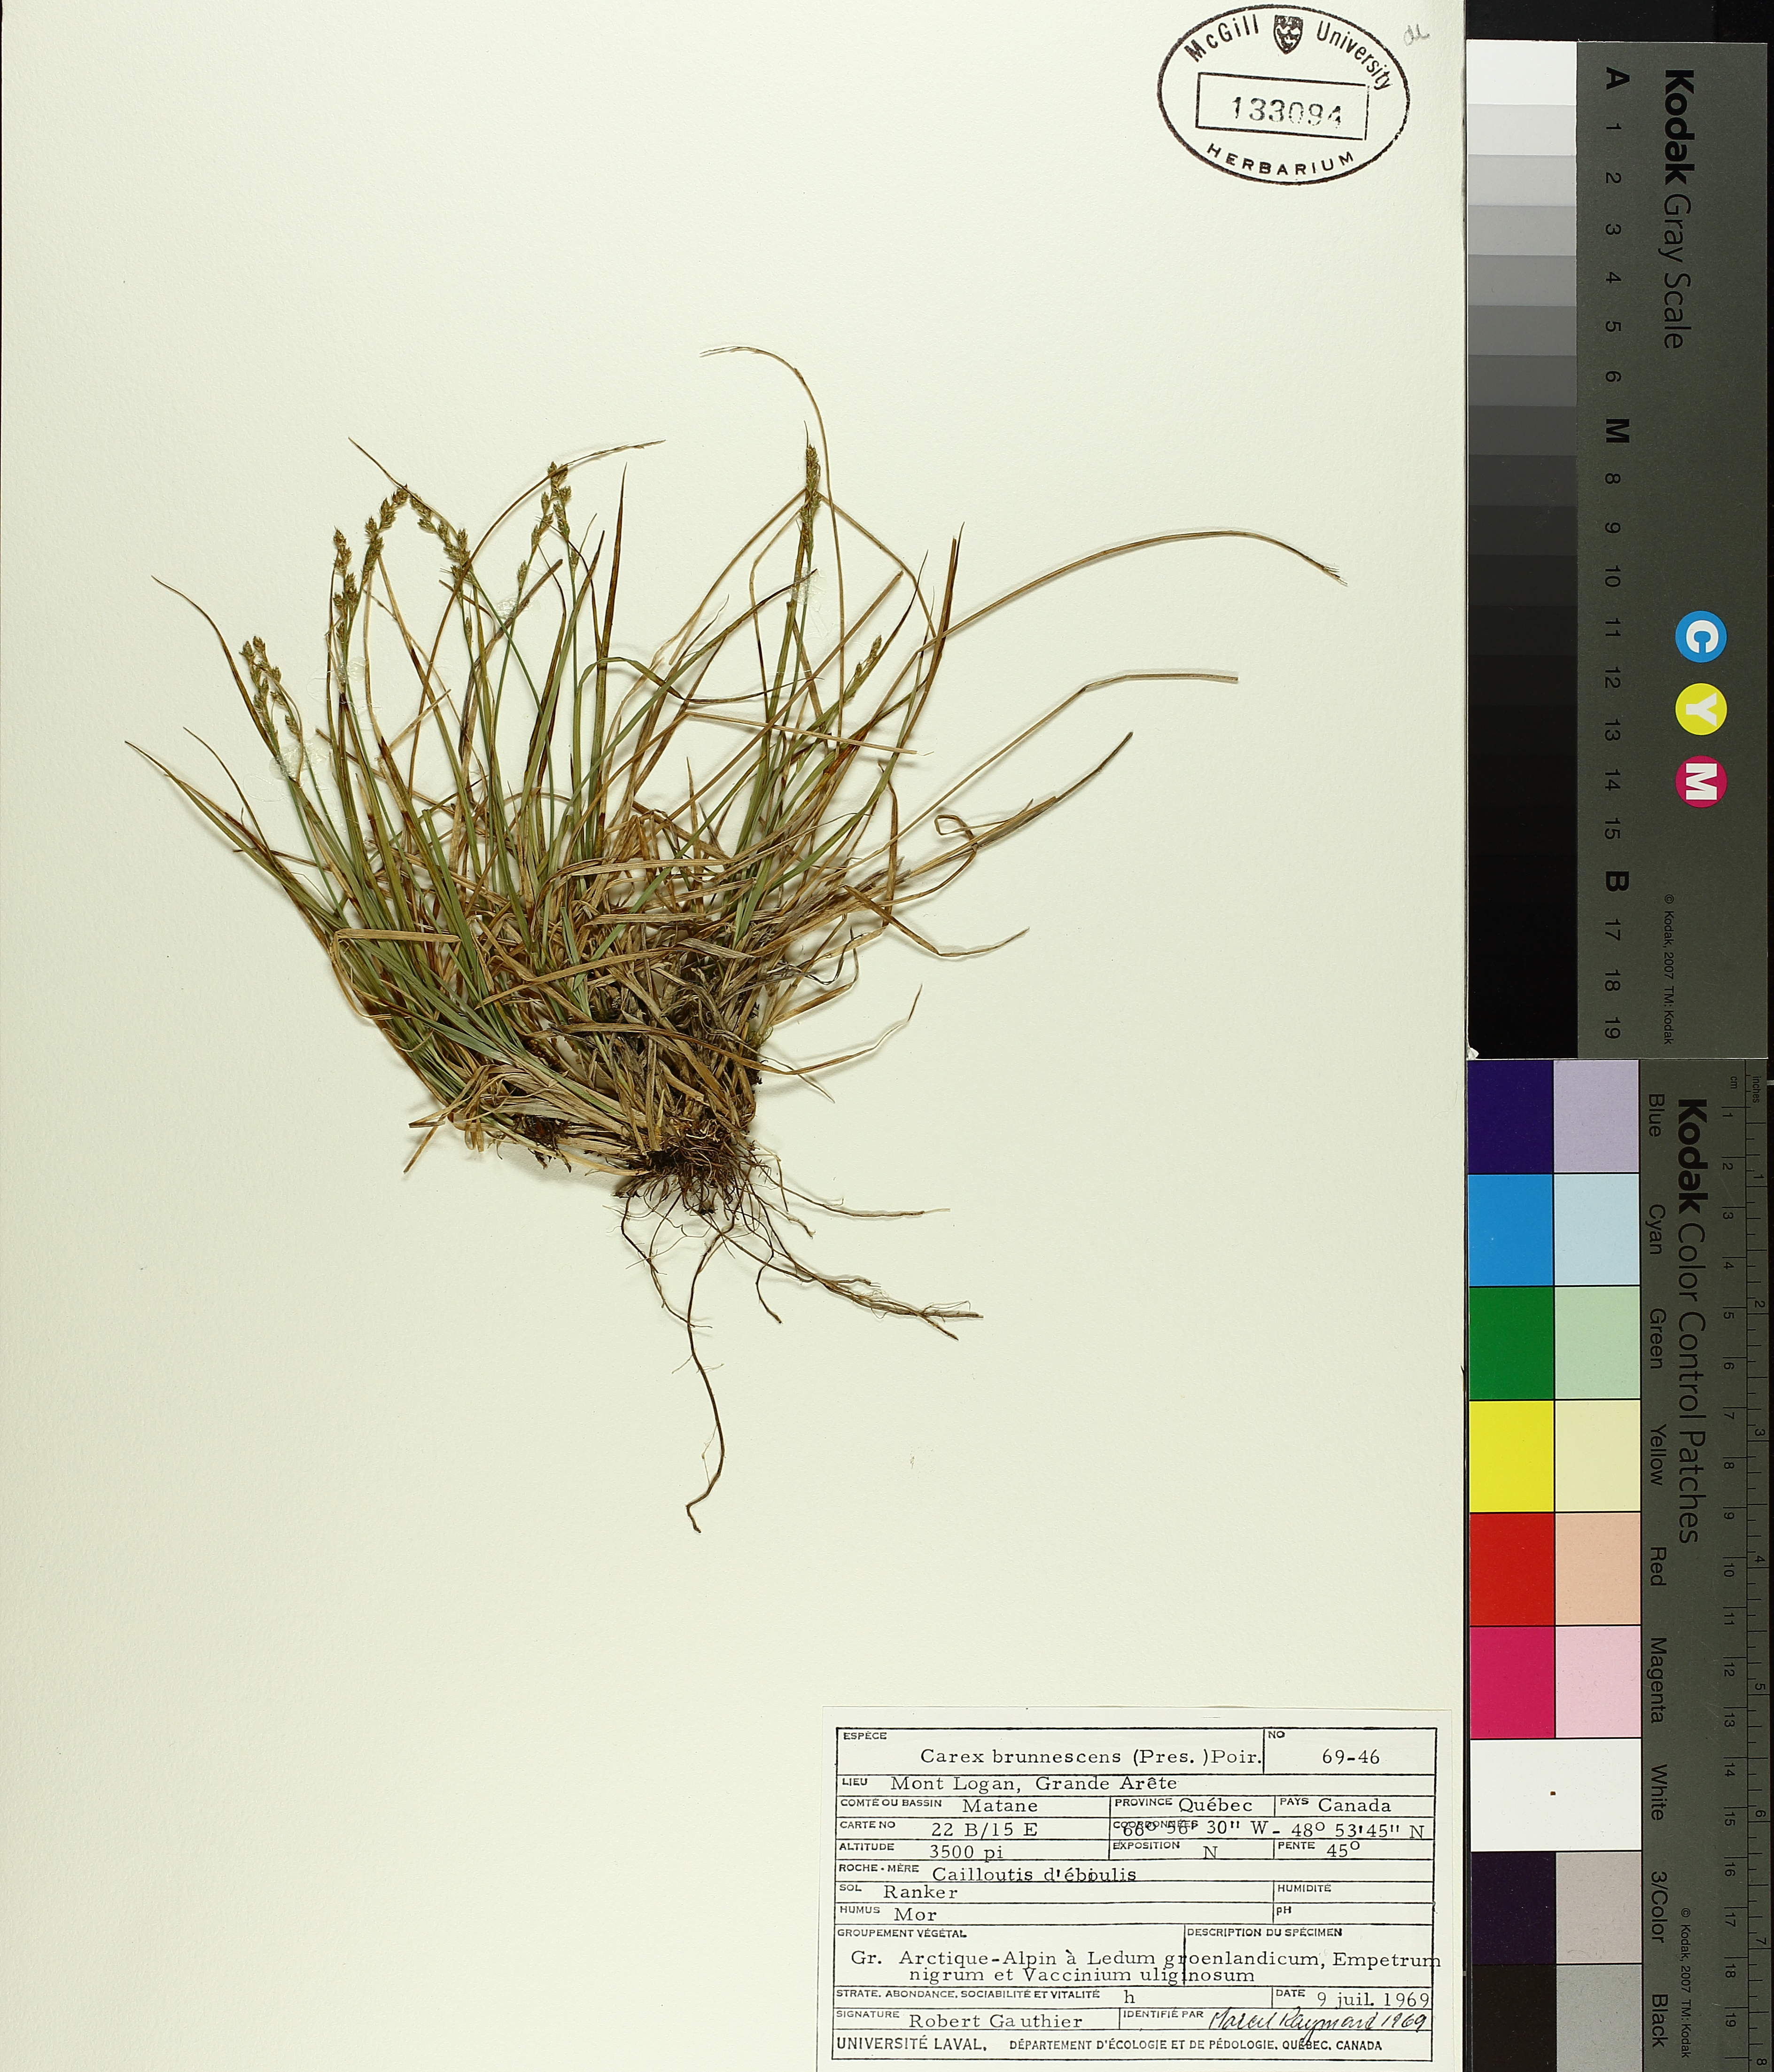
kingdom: Plantae
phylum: Tracheophyta
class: Liliopsida
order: Poales
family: Cyperaceae
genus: Carex
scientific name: Carex brunnescens
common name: Brown sedge
